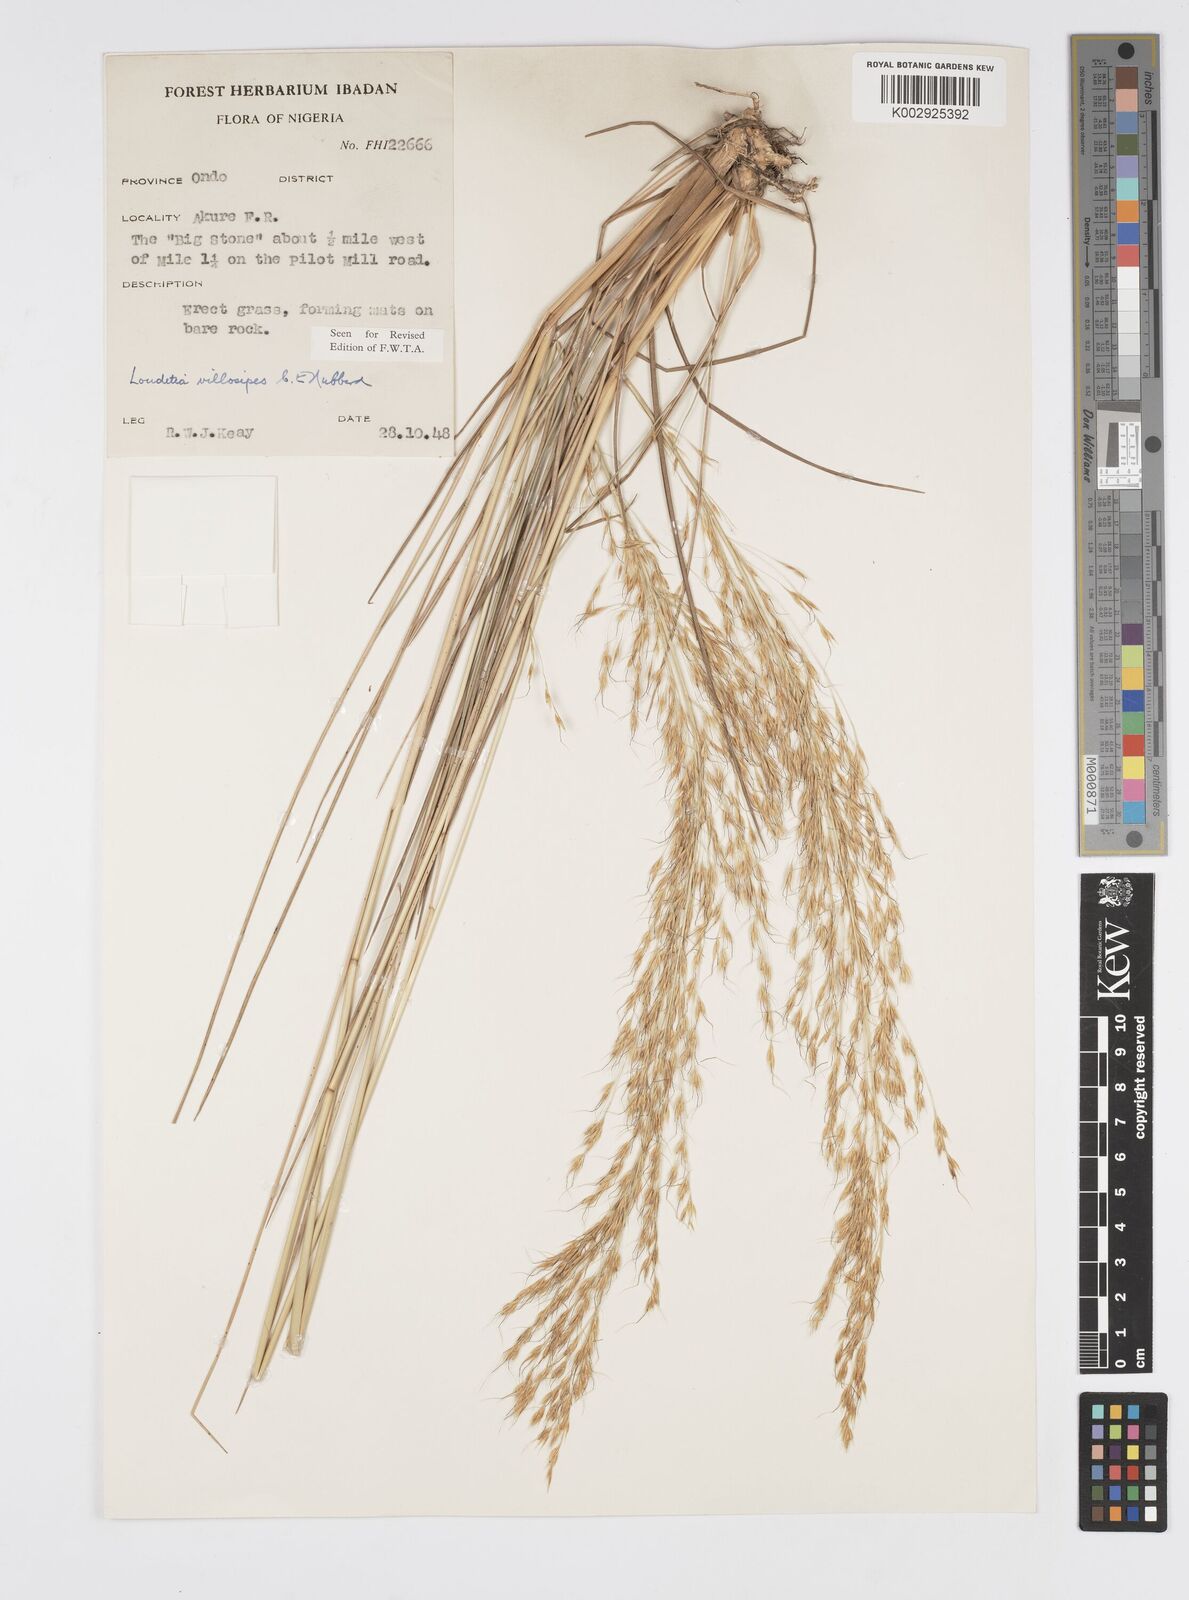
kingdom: Plantae
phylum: Tracheophyta
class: Liliopsida
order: Poales
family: Poaceae
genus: Loudetiopsis
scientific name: Loudetiopsis glabrata
